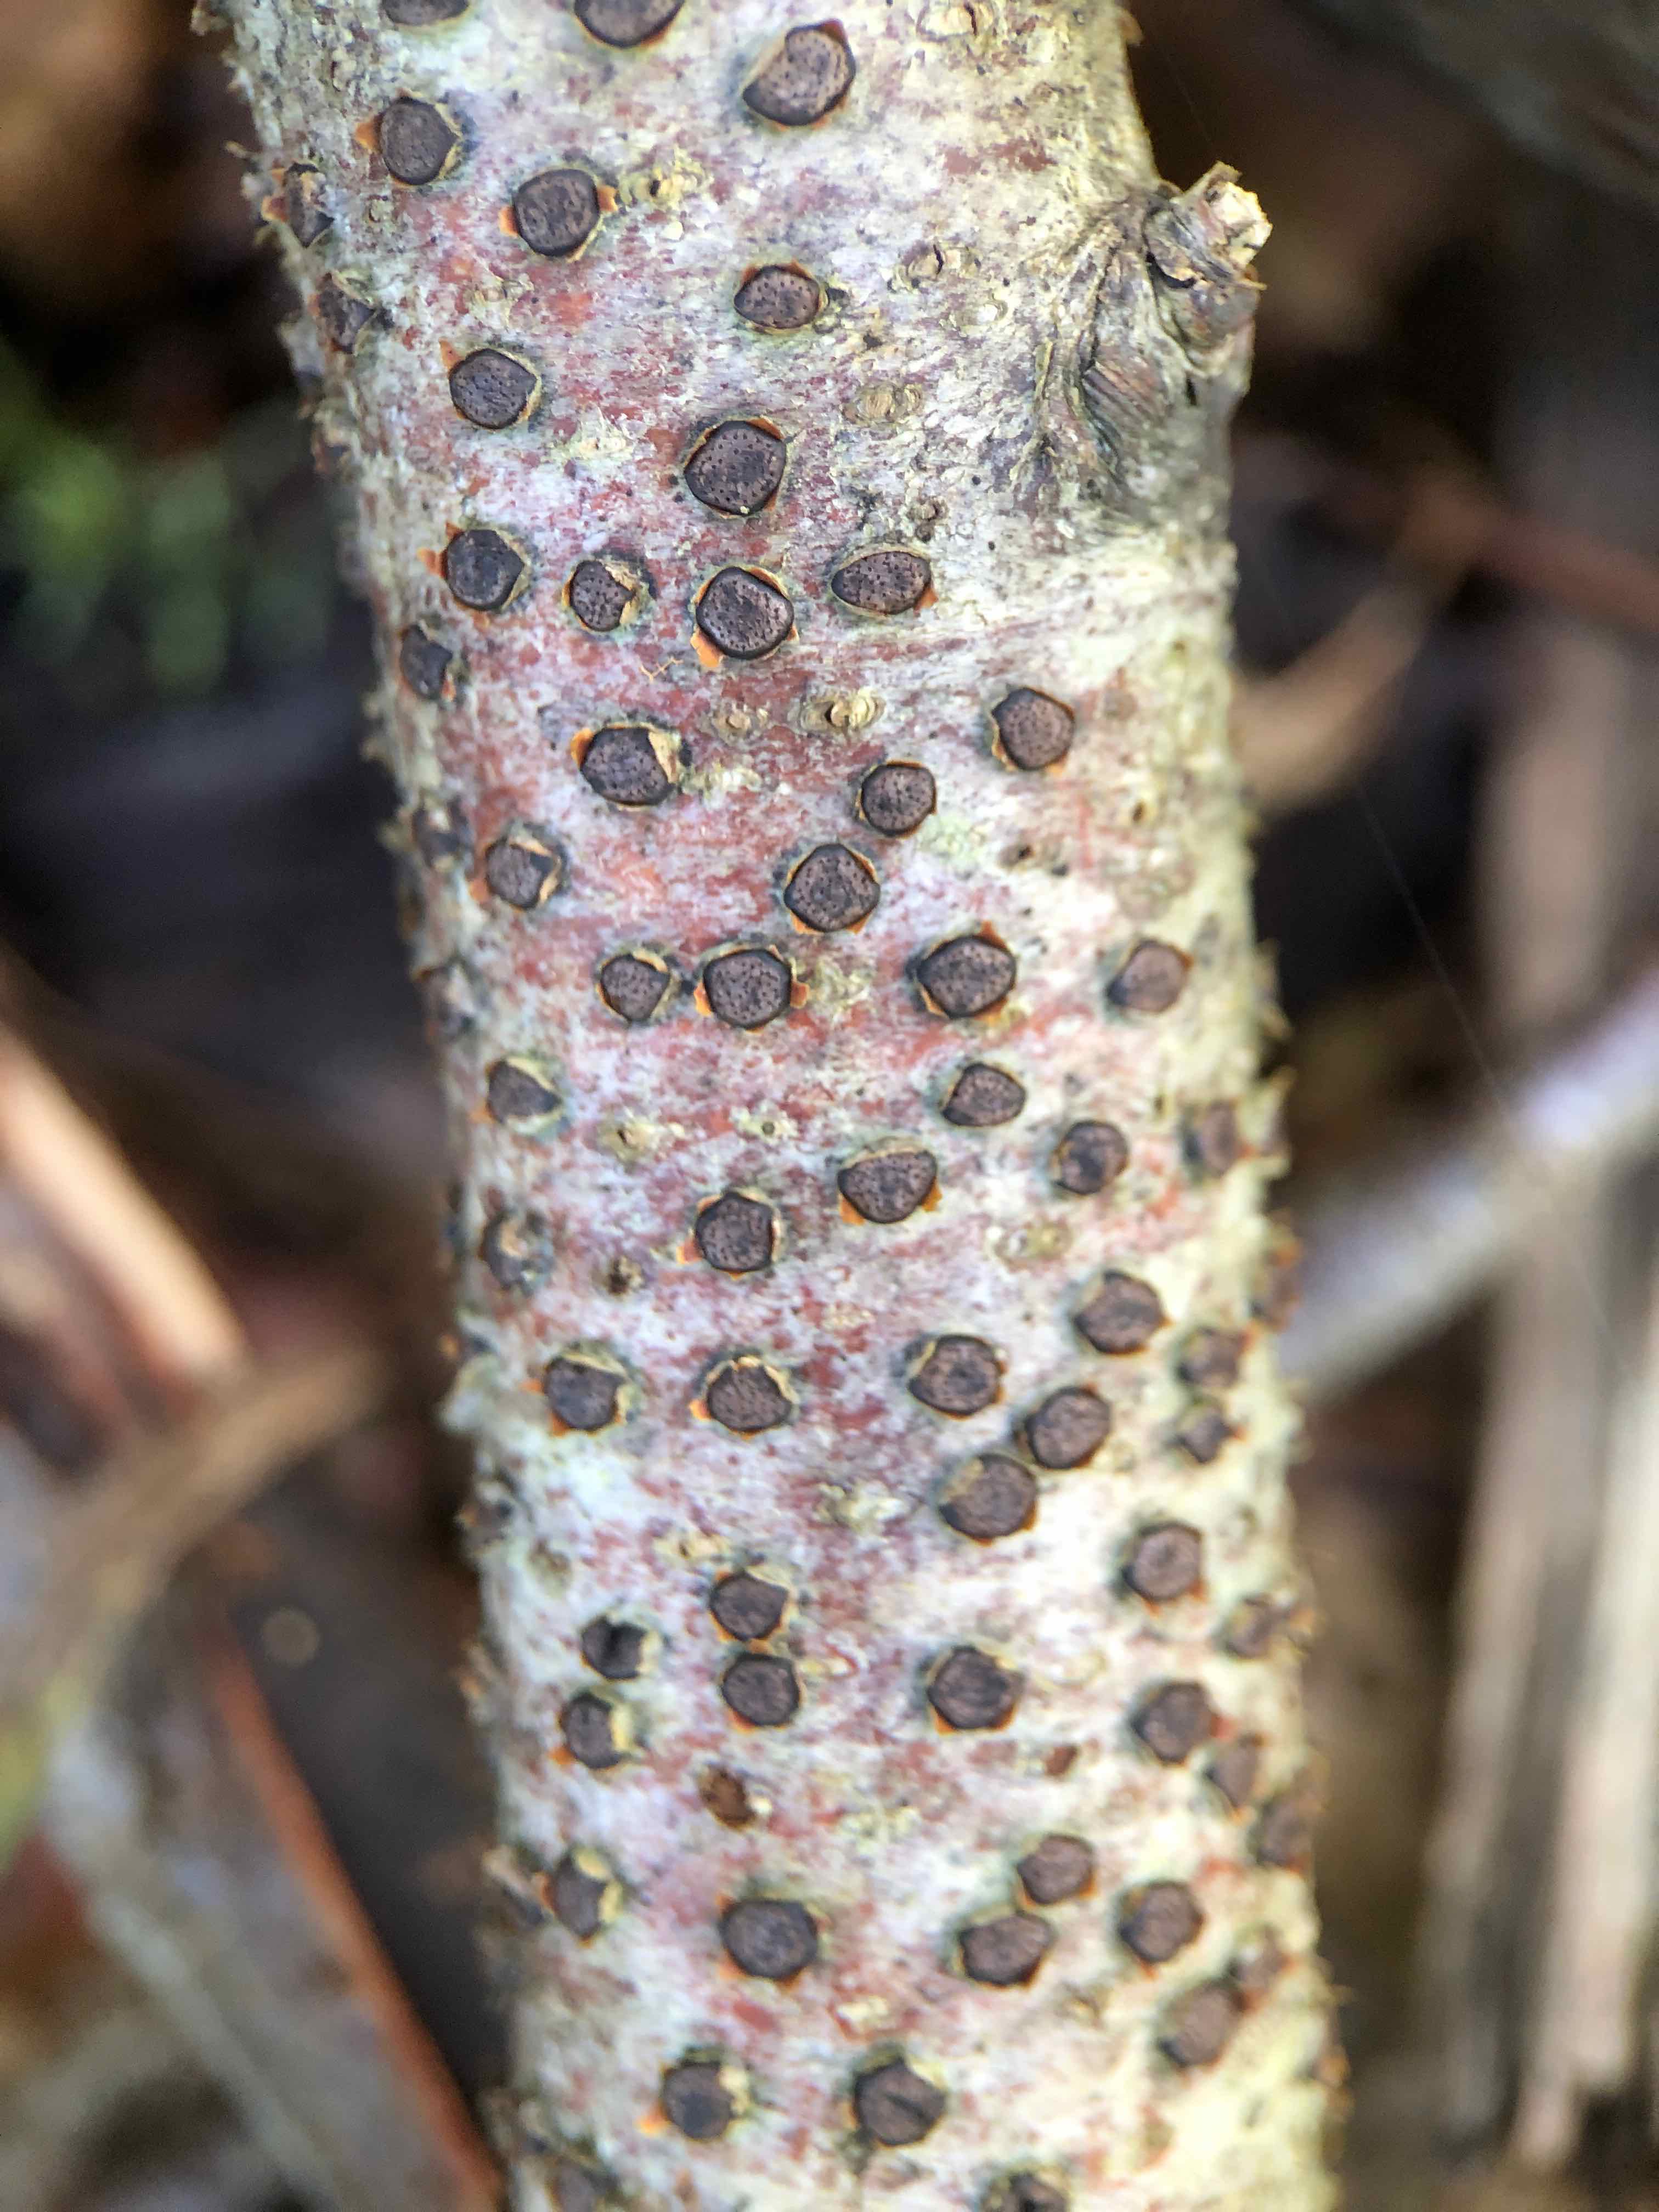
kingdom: Fungi
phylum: Ascomycota
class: Sordariomycetes
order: Xylariales
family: Diatrypaceae
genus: Diatrype
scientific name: Diatrype disciformis
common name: kant-kulskorpe
